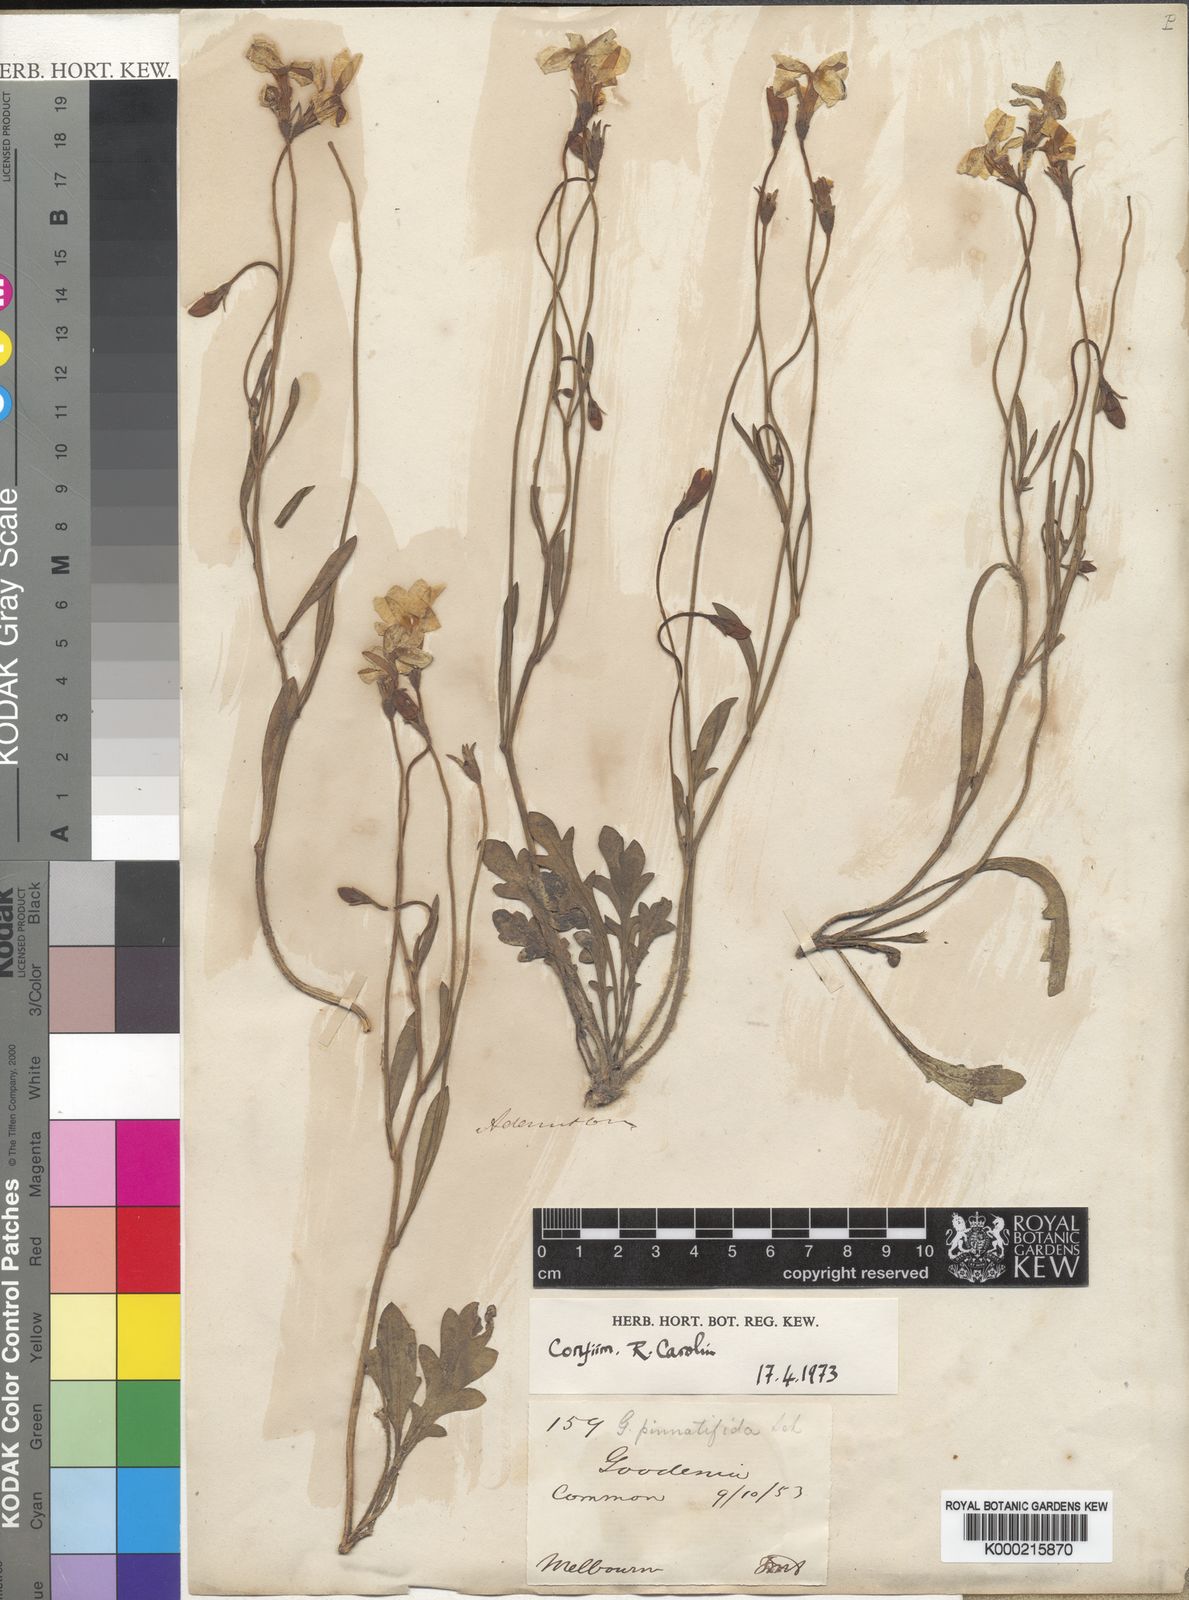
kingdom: Plantae
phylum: Tracheophyta
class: Magnoliopsida
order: Asterales
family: Goodeniaceae
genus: Goodenia
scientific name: Goodenia pinnatifida
